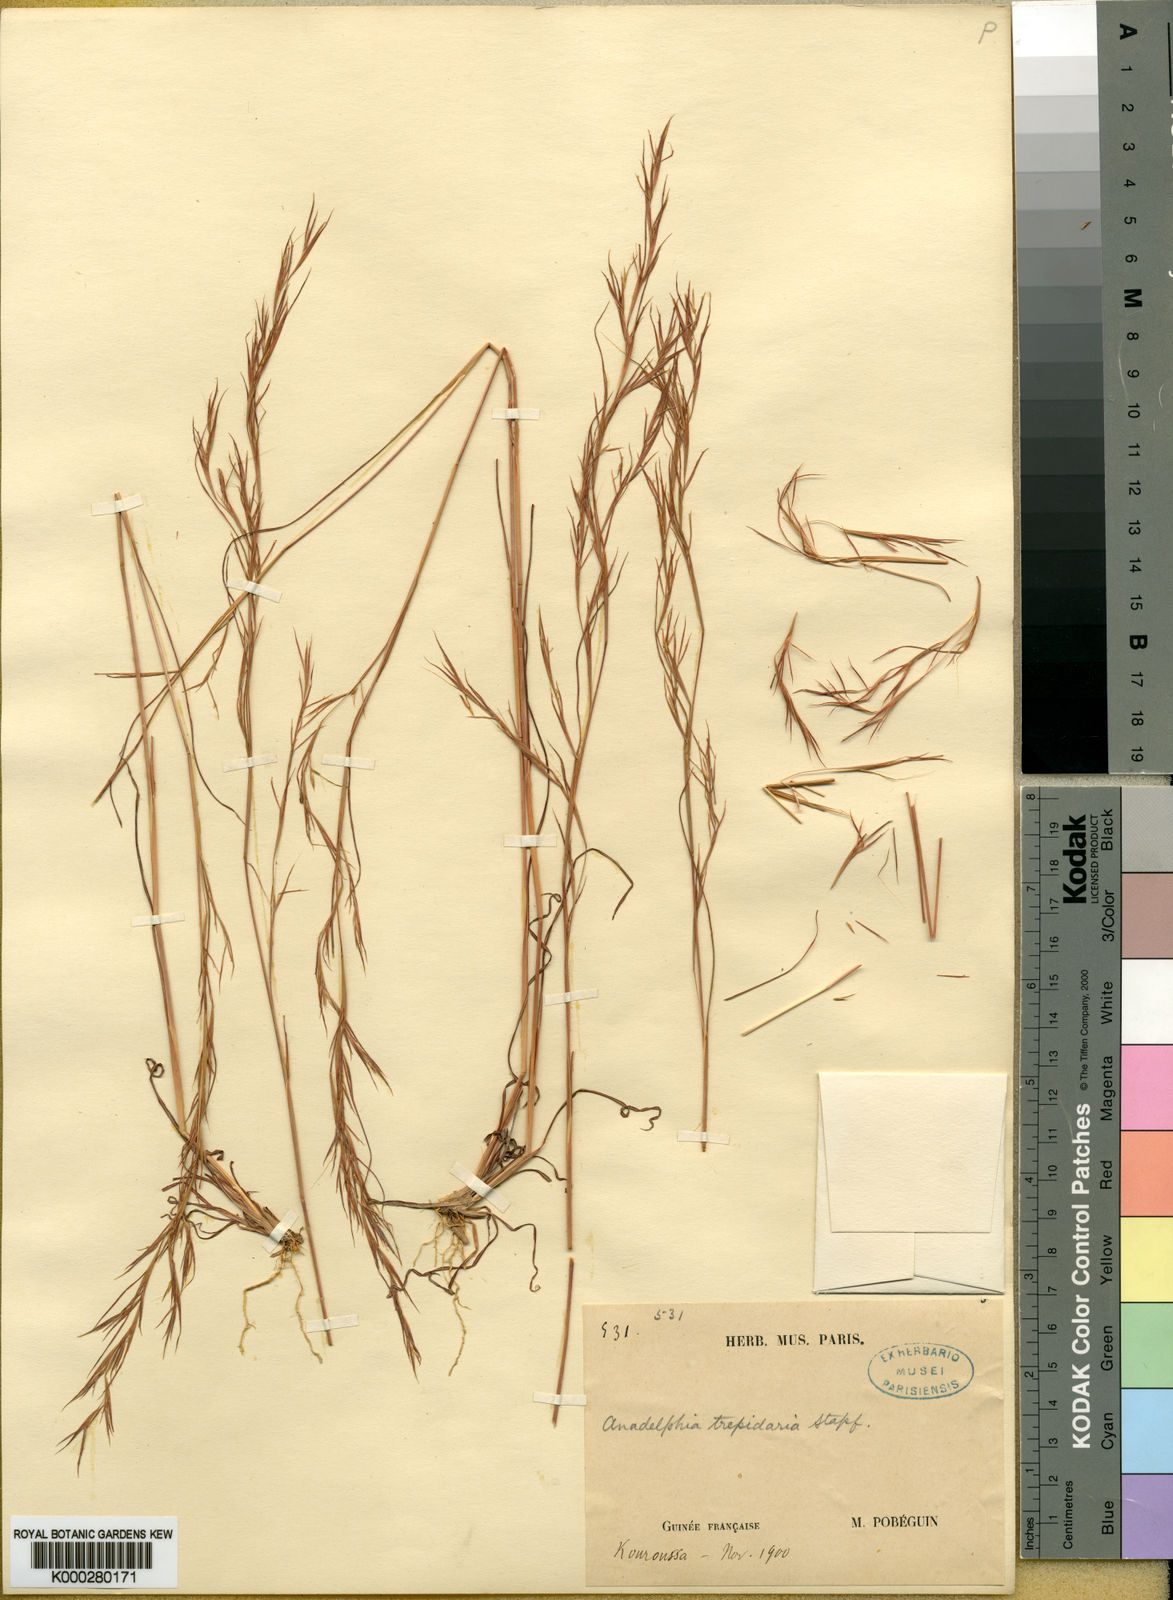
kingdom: Plantae
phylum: Tracheophyta
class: Liliopsida
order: Poales
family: Poaceae
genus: Anadelphia
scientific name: Anadelphia trepidaria
